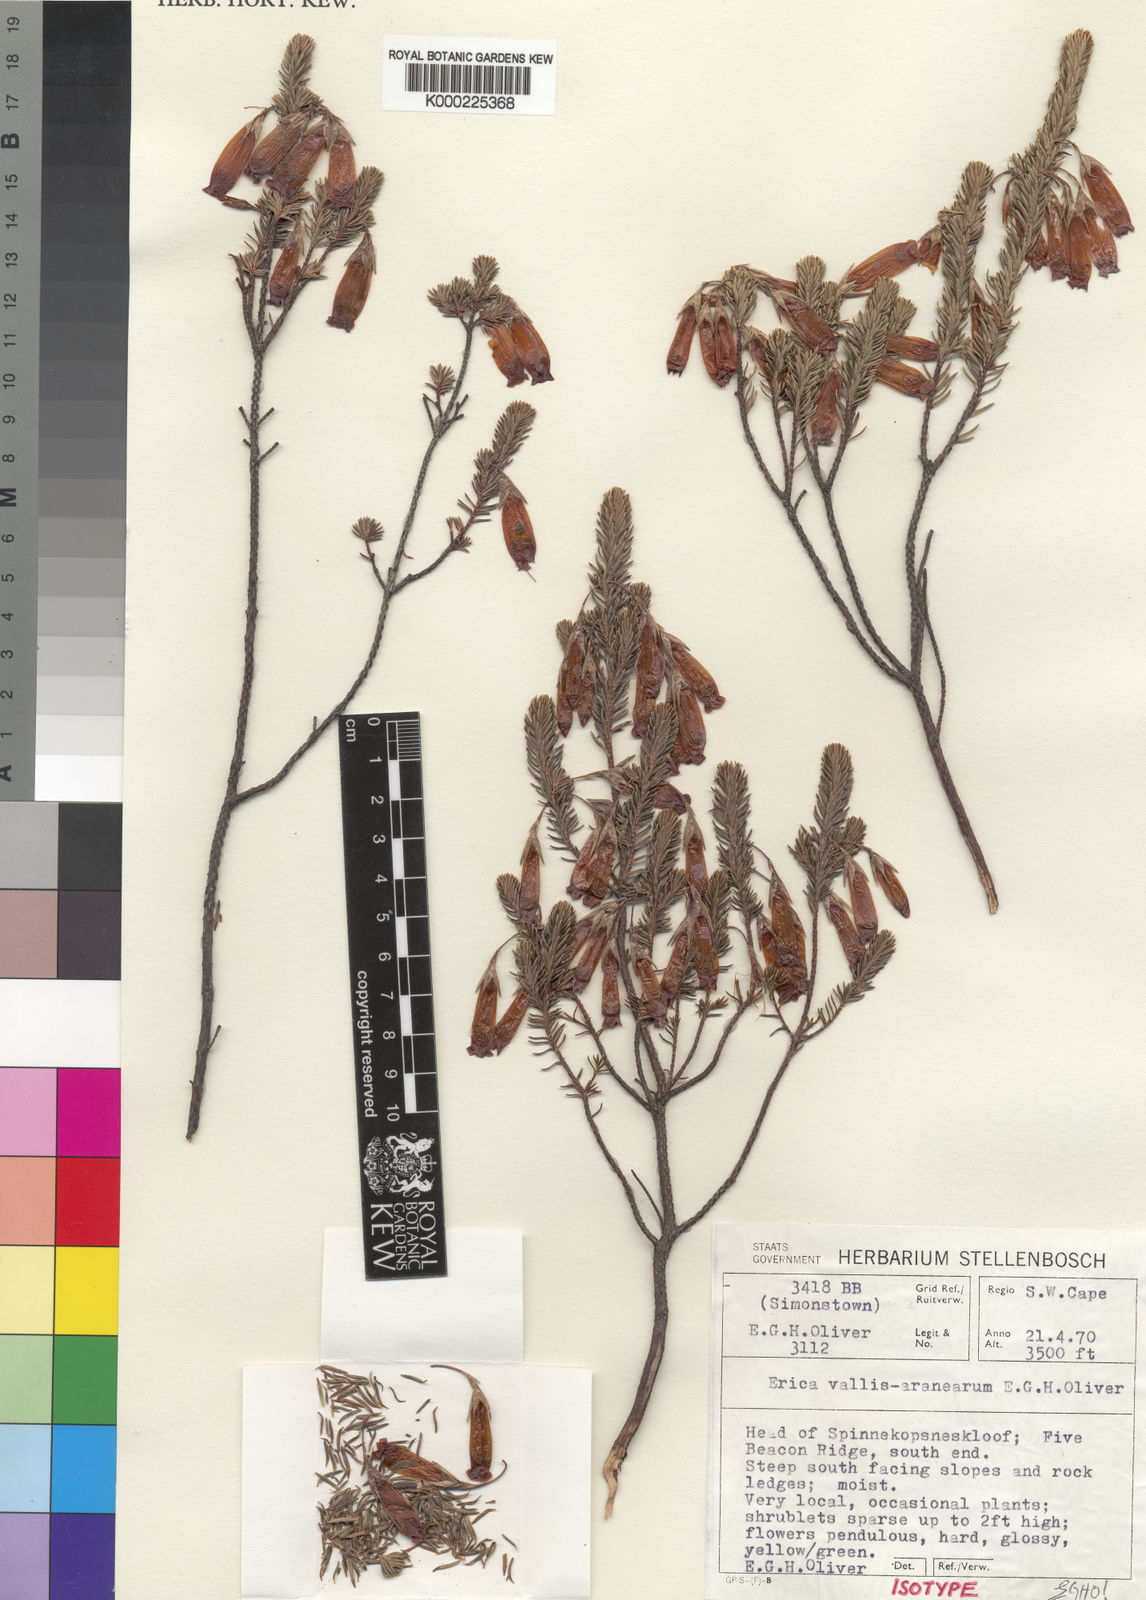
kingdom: Plantae
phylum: Tracheophyta
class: Magnoliopsida
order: Ericales
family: Ericaceae
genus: Erica
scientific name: Erica vallis-aranearum
